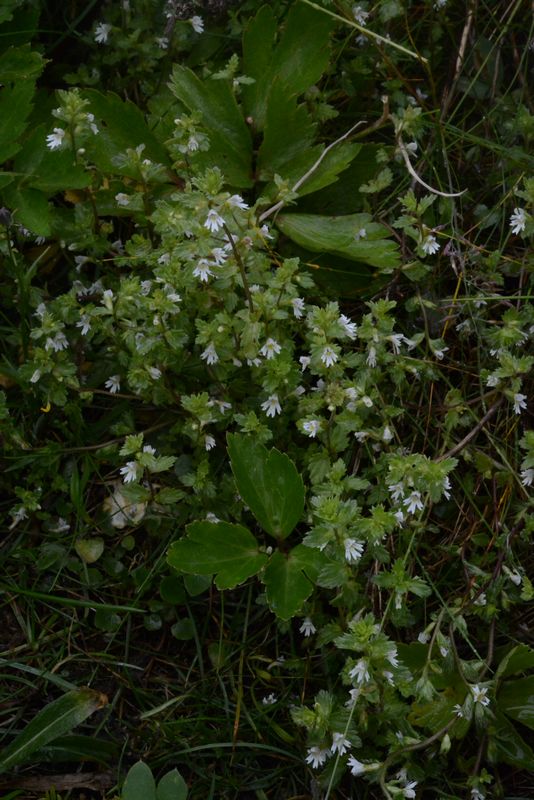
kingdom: Plantae
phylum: Tracheophyta
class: Magnoliopsida
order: Lamiales
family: Orobanchaceae
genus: Euphrasia
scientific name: Euphrasia frigida
